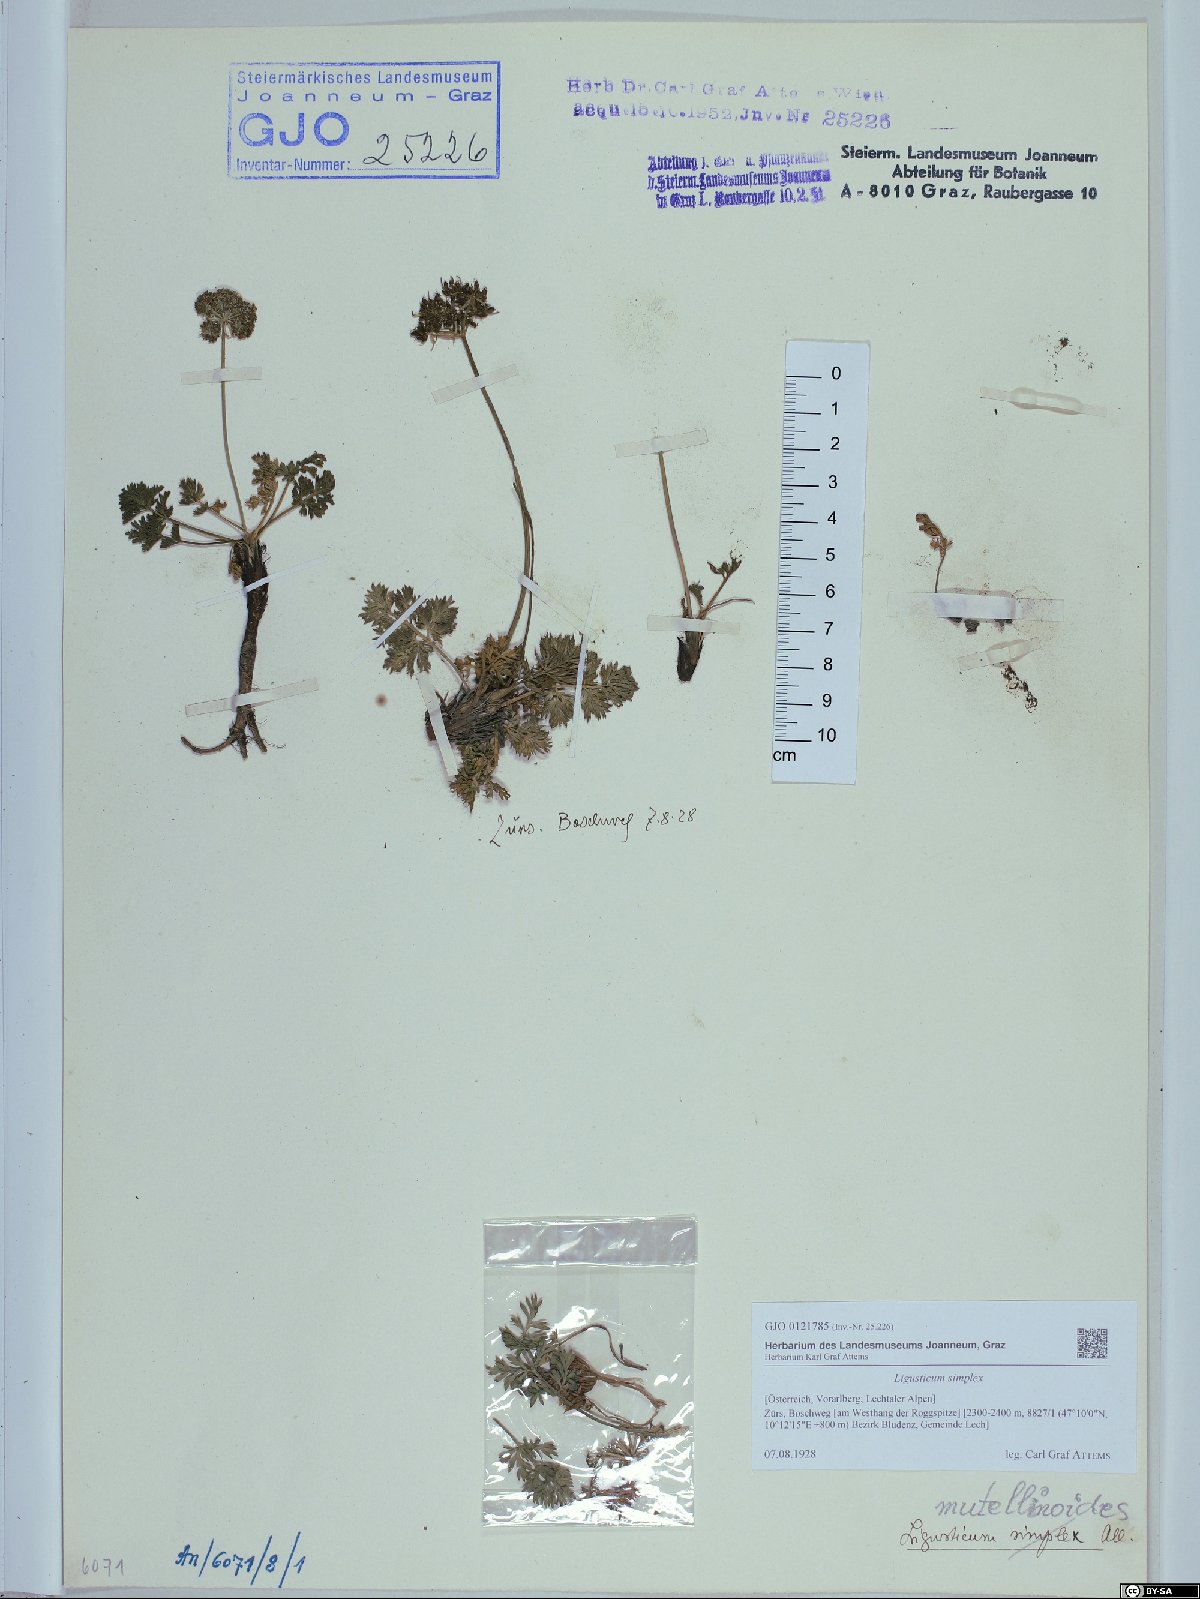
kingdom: Plantae
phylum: Tracheophyta
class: Magnoliopsida
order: Apiales
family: Apiaceae
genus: Pachypleurum
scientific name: Pachypleurum mutellinoides
